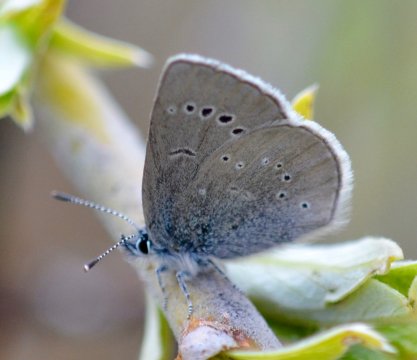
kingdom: Animalia
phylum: Arthropoda
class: Insecta
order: Lepidoptera
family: Lycaenidae
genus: Glaucopsyche
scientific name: Glaucopsyche lygdamus
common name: Silvery Blue
